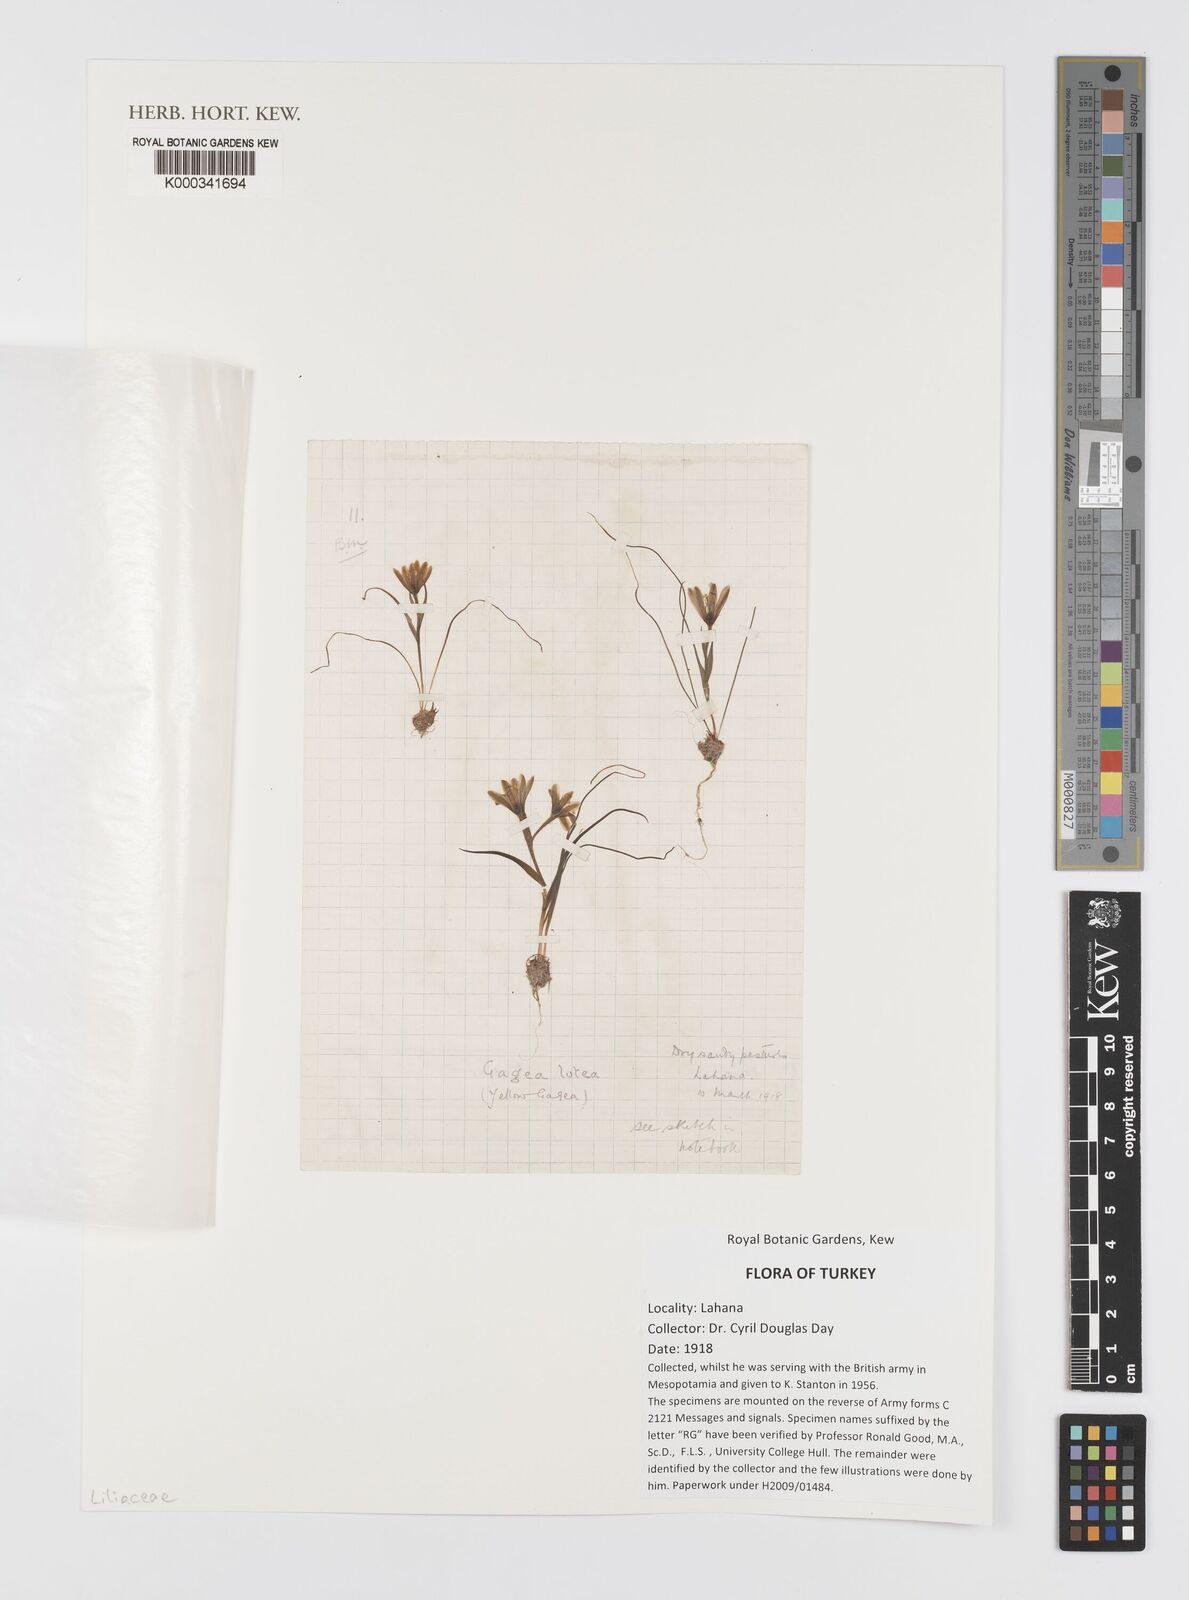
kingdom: Plantae
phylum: Tracheophyta
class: Liliopsida
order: Liliales
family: Liliaceae
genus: Gagea
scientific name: Gagea lutea
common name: Yellow star-of-bethlehem
